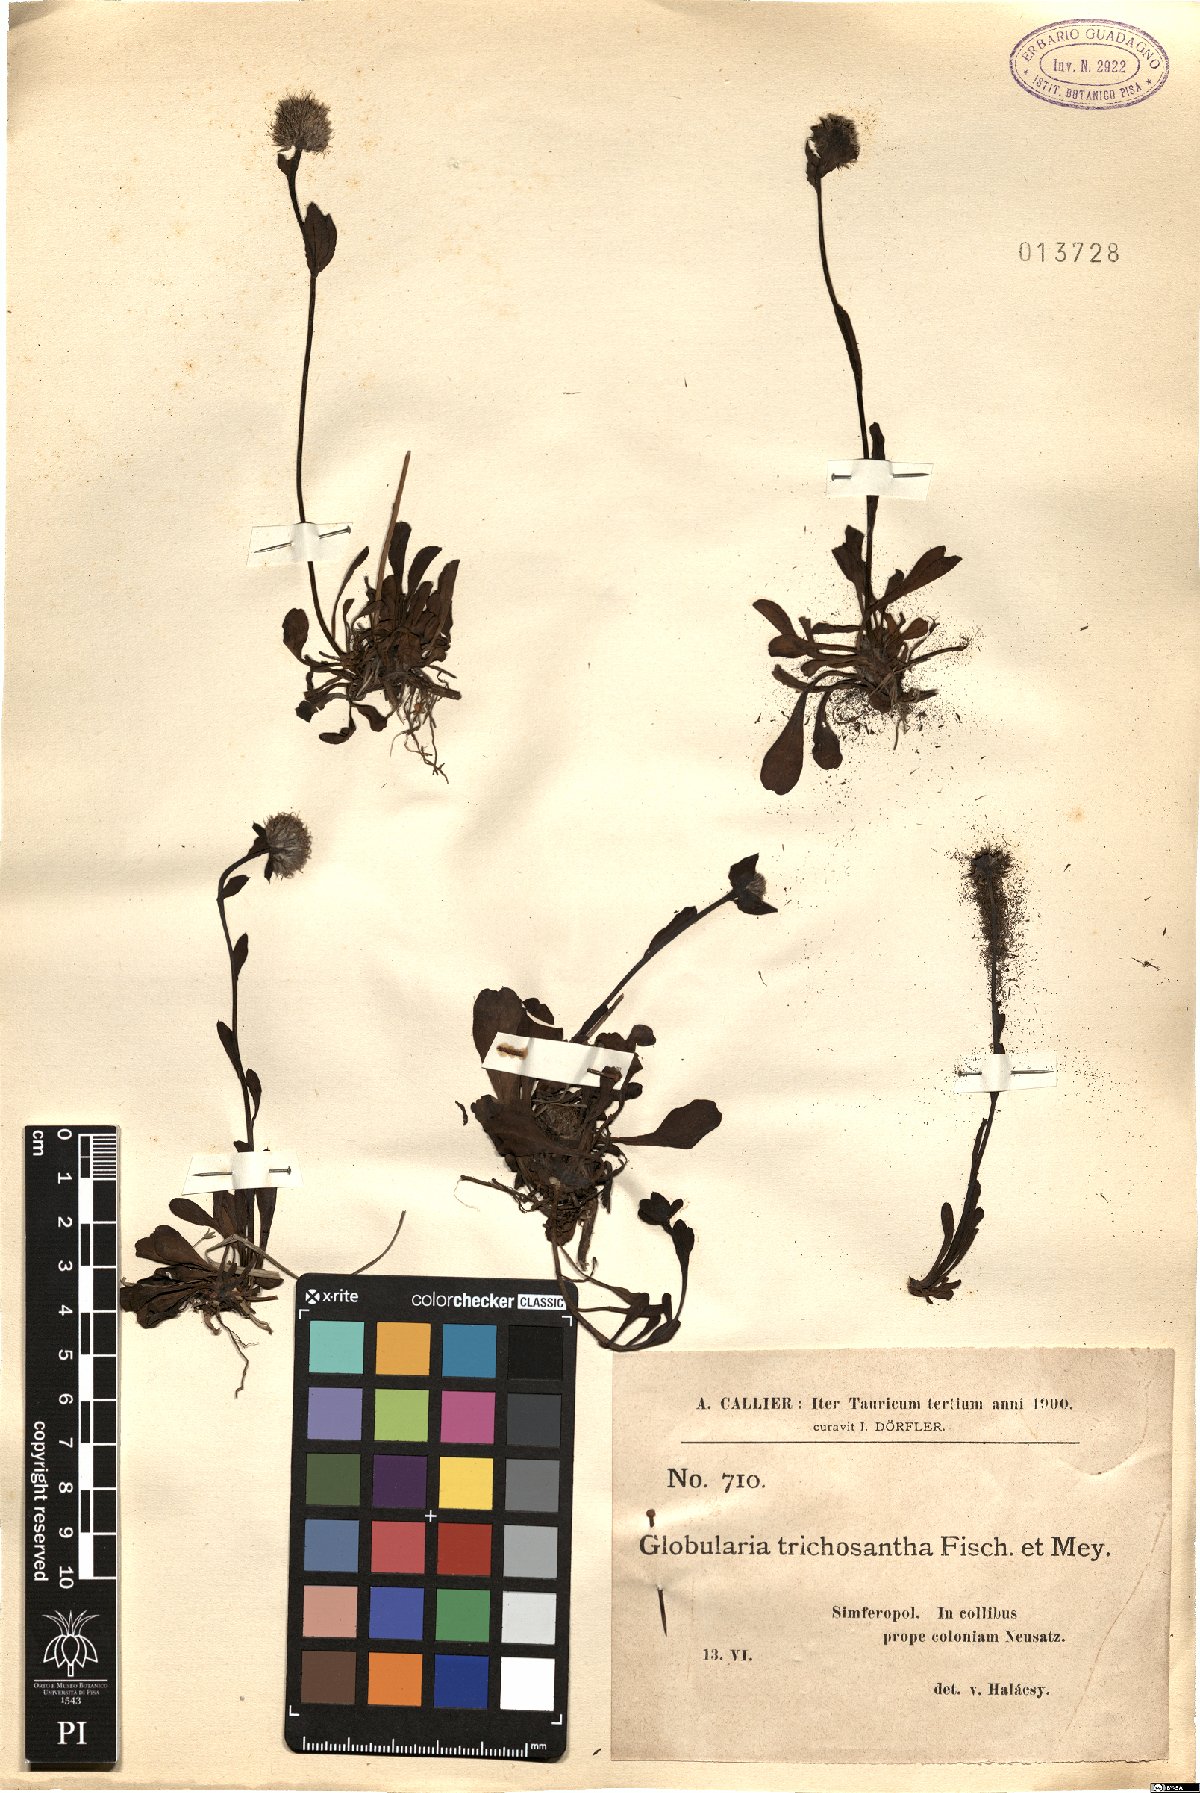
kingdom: Plantae
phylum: Tracheophyta
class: Magnoliopsida
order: Lamiales
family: Plantaginaceae
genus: Globularia
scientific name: Globularia trichosantha
